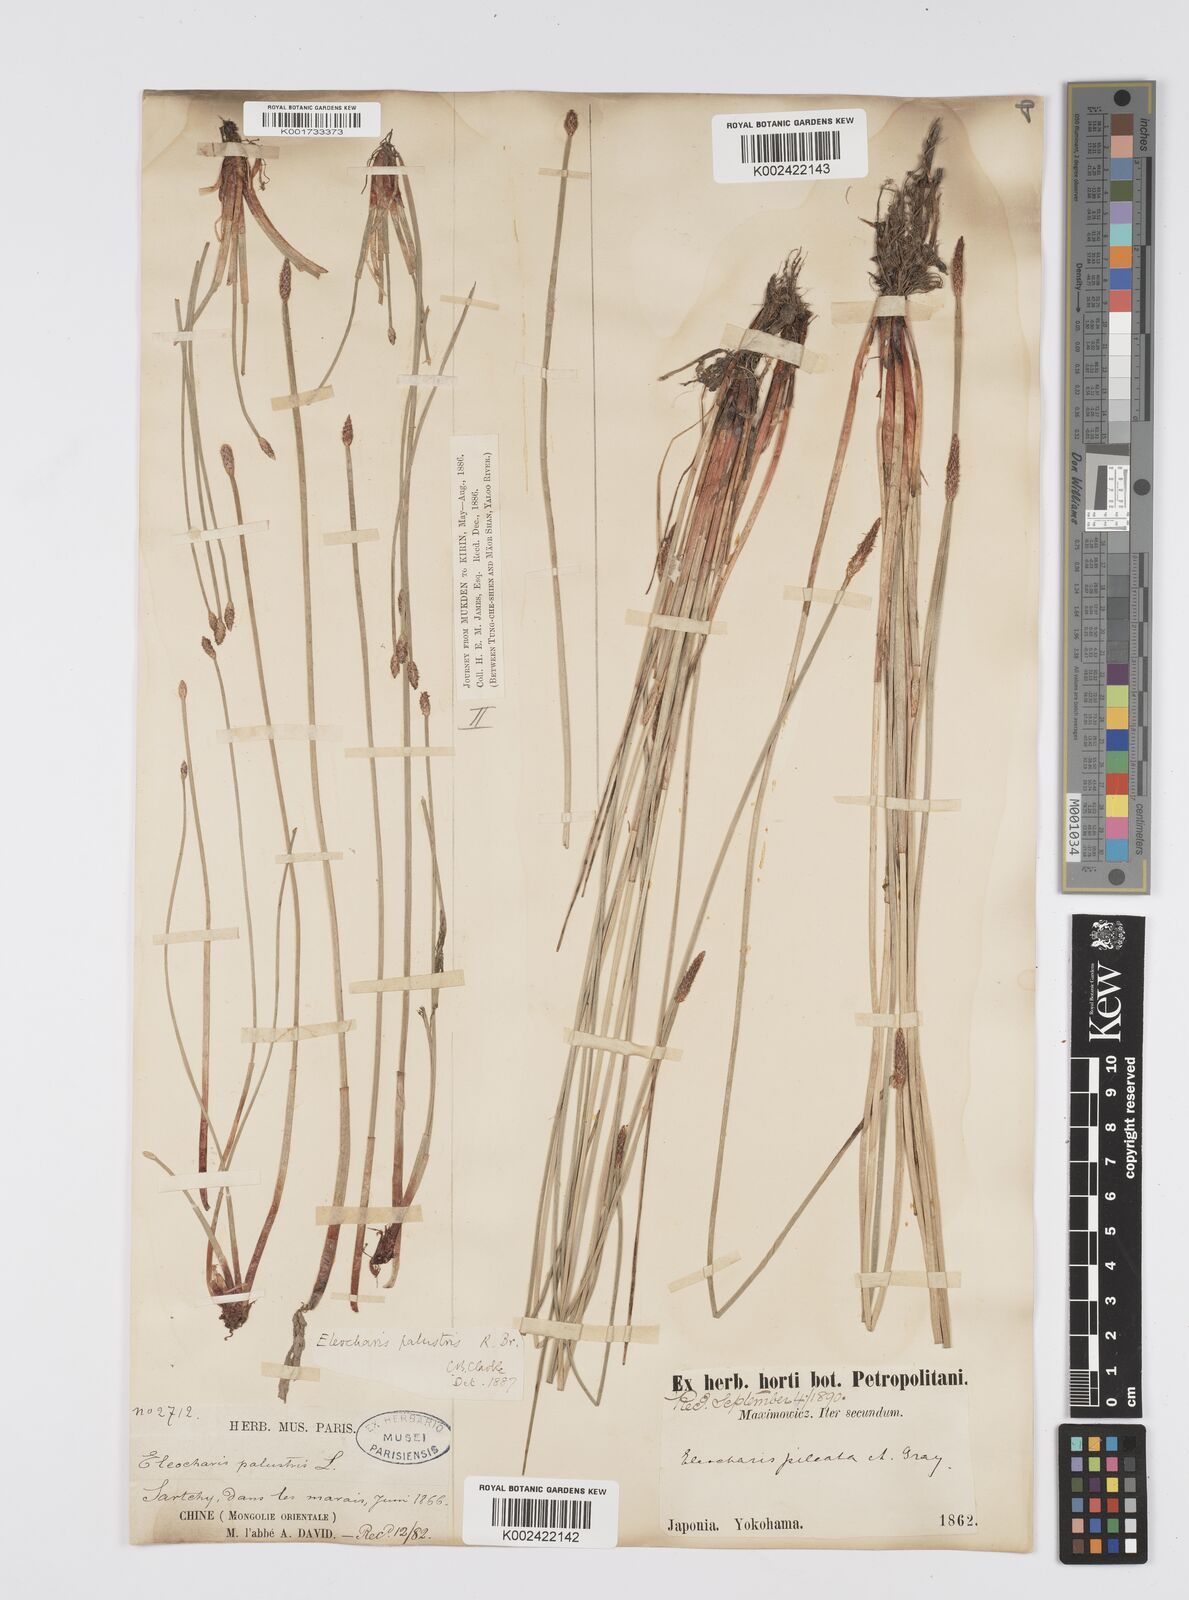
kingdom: Plantae
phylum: Tracheophyta
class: Liliopsida
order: Poales
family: Cyperaceae
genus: Eleocharis
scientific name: Eleocharis kamtschatica
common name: Kamchatka spikerush
